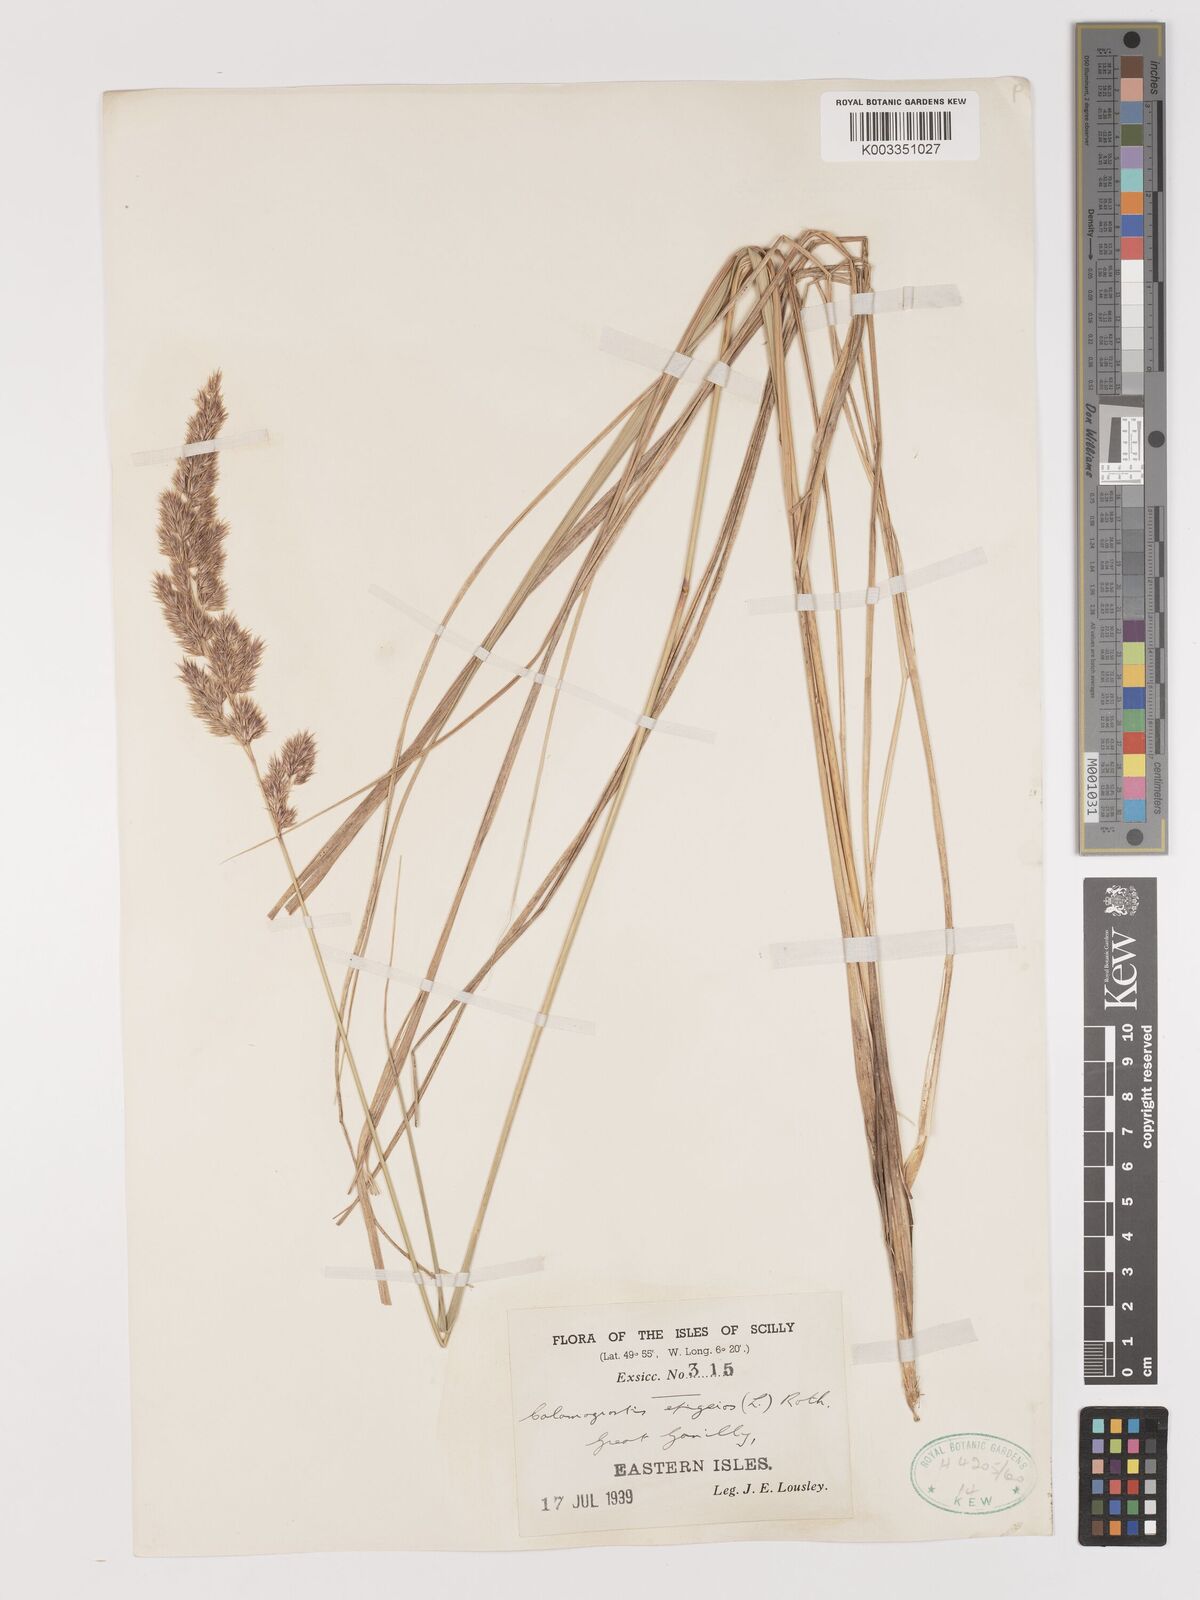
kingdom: Plantae
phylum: Tracheophyta
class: Liliopsida
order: Poales
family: Poaceae
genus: Calamagrostis
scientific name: Calamagrostis epigejos
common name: Wood small-reed
